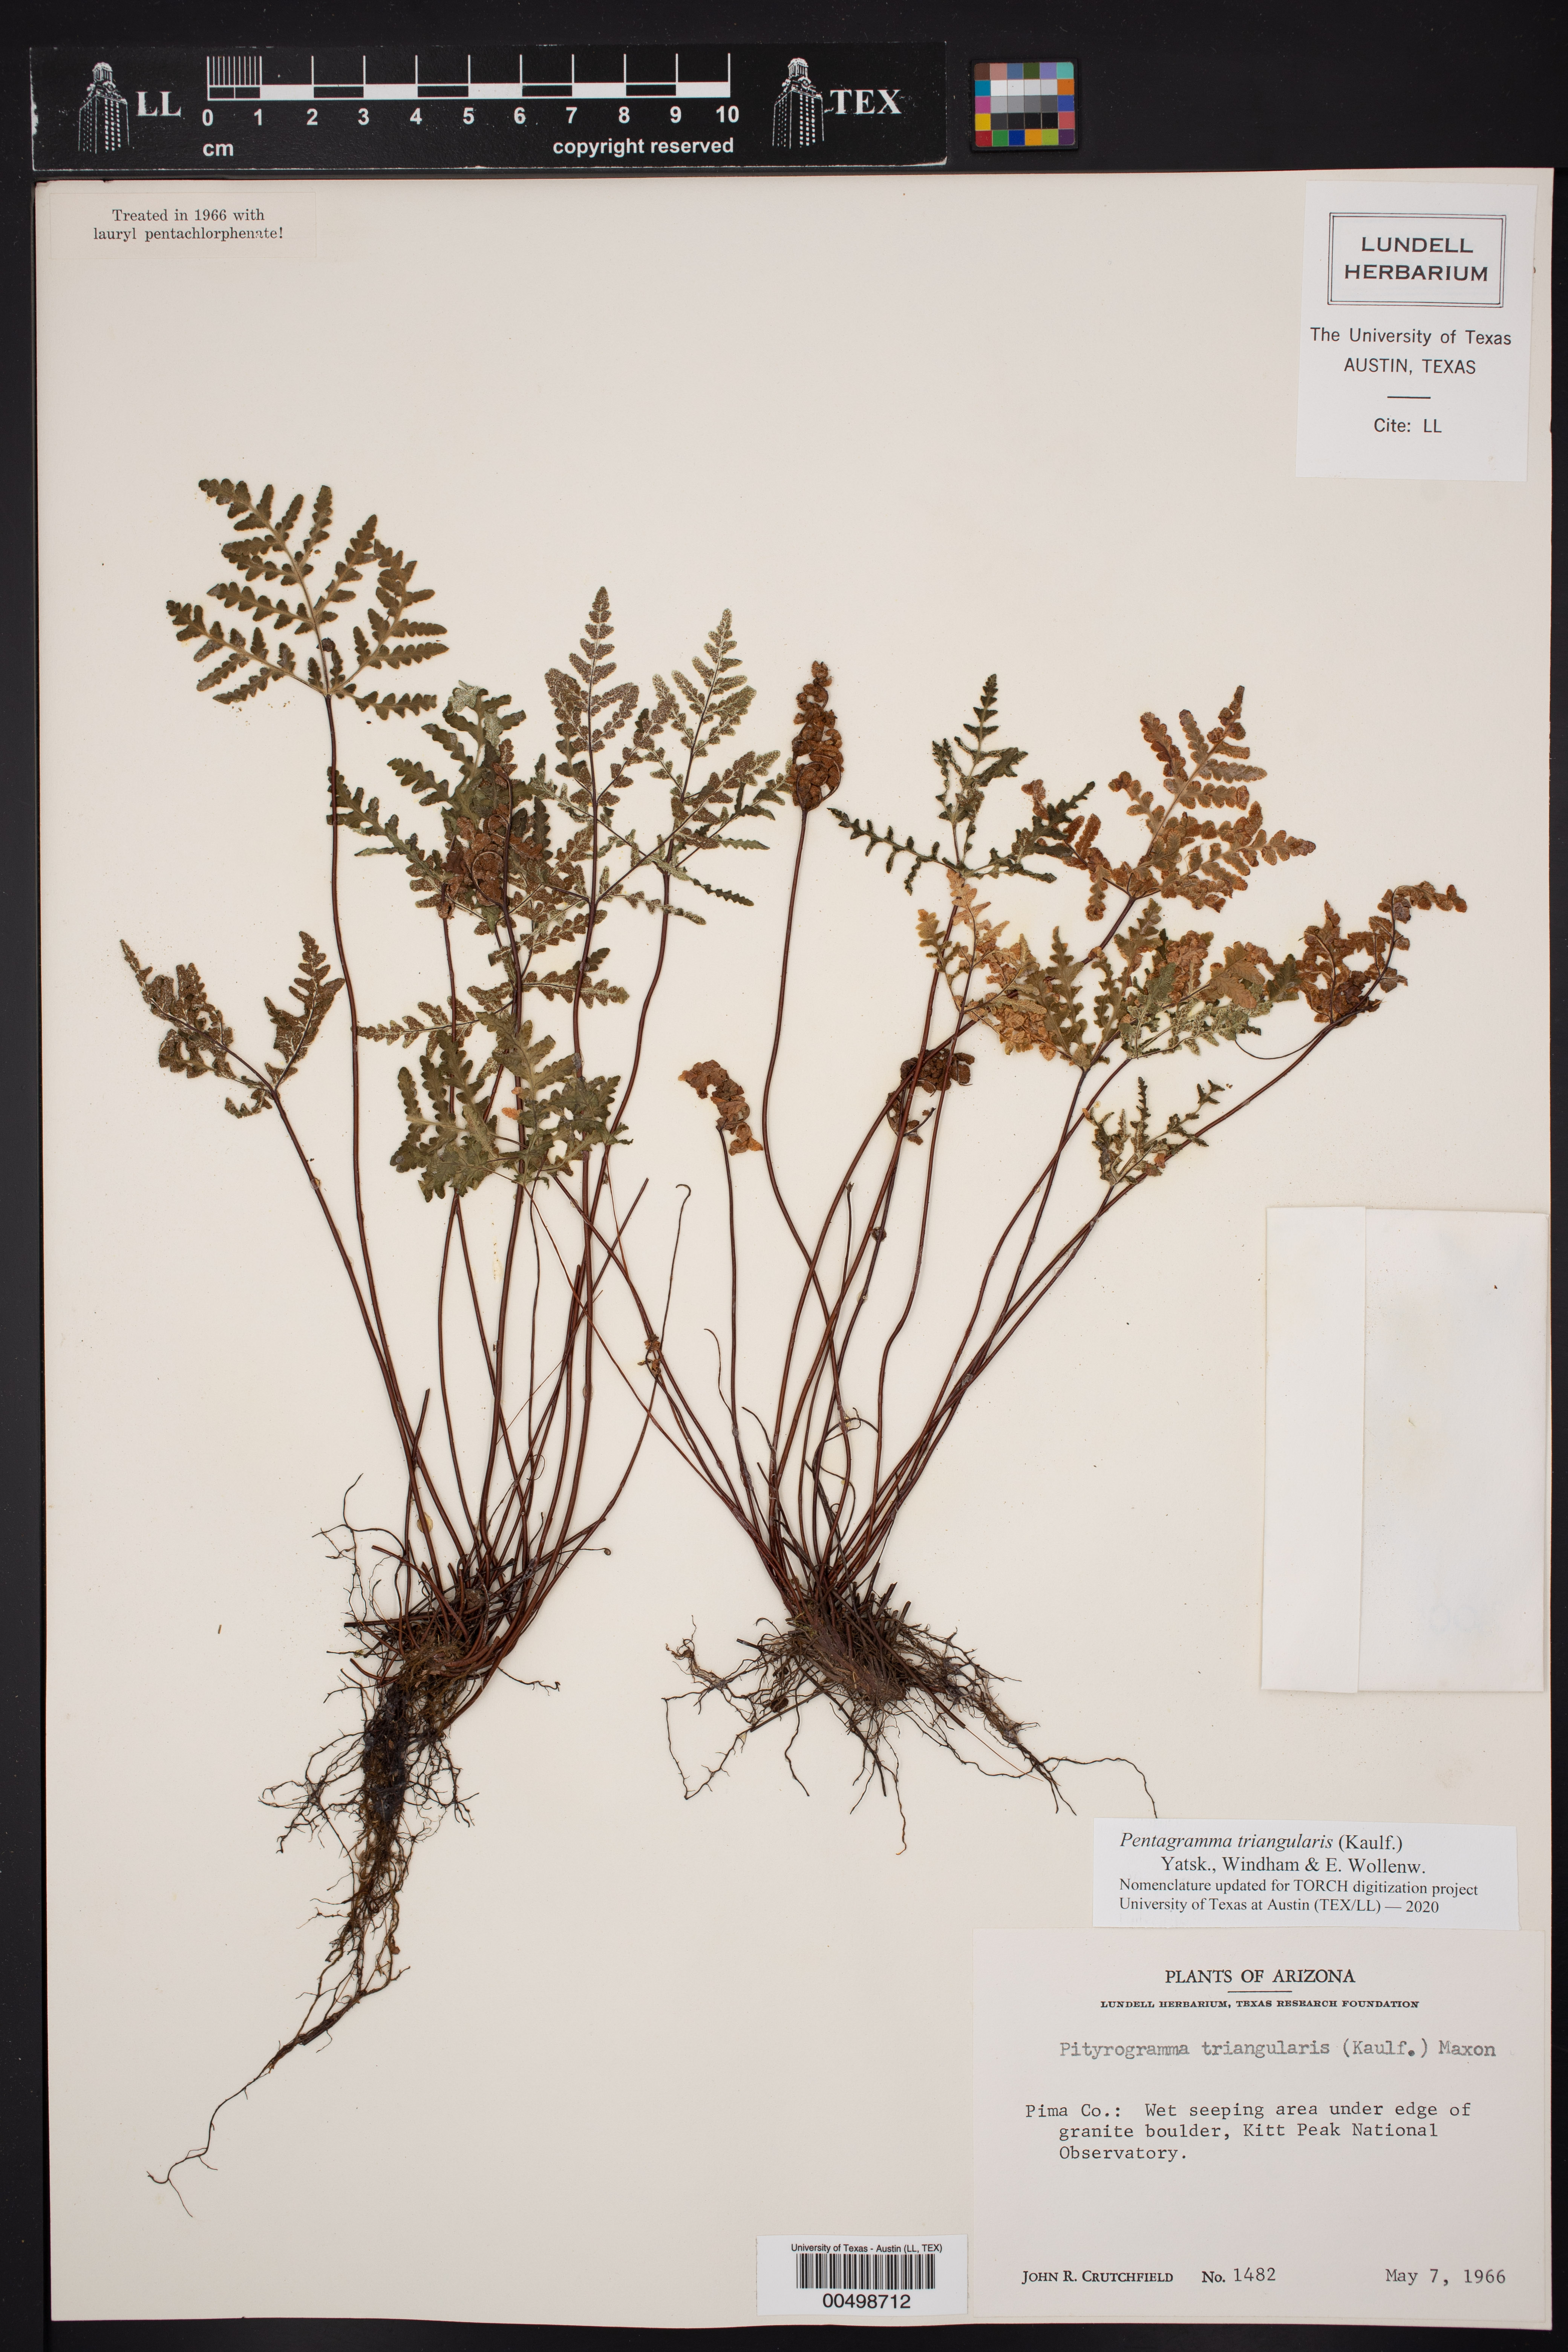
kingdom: Plantae
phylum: Tracheophyta
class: Polypodiopsida
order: Polypodiales
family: Pteridaceae
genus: Pentagramma
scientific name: Pentagramma triangularis
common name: Gold fern
